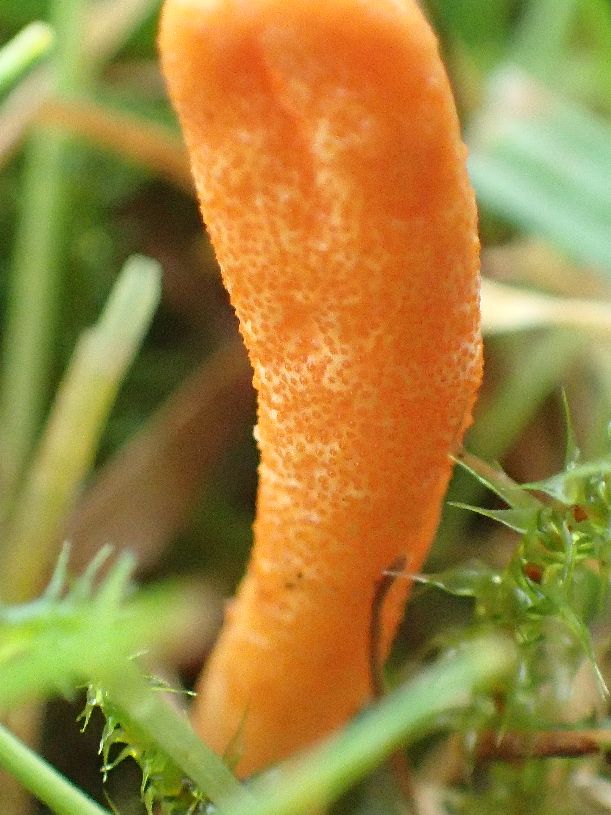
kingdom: Fungi
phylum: Ascomycota
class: Sordariomycetes
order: Hypocreales
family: Cordycipitaceae
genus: Cordyceps
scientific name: Cordyceps militaris
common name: puppe-snyltekølle
